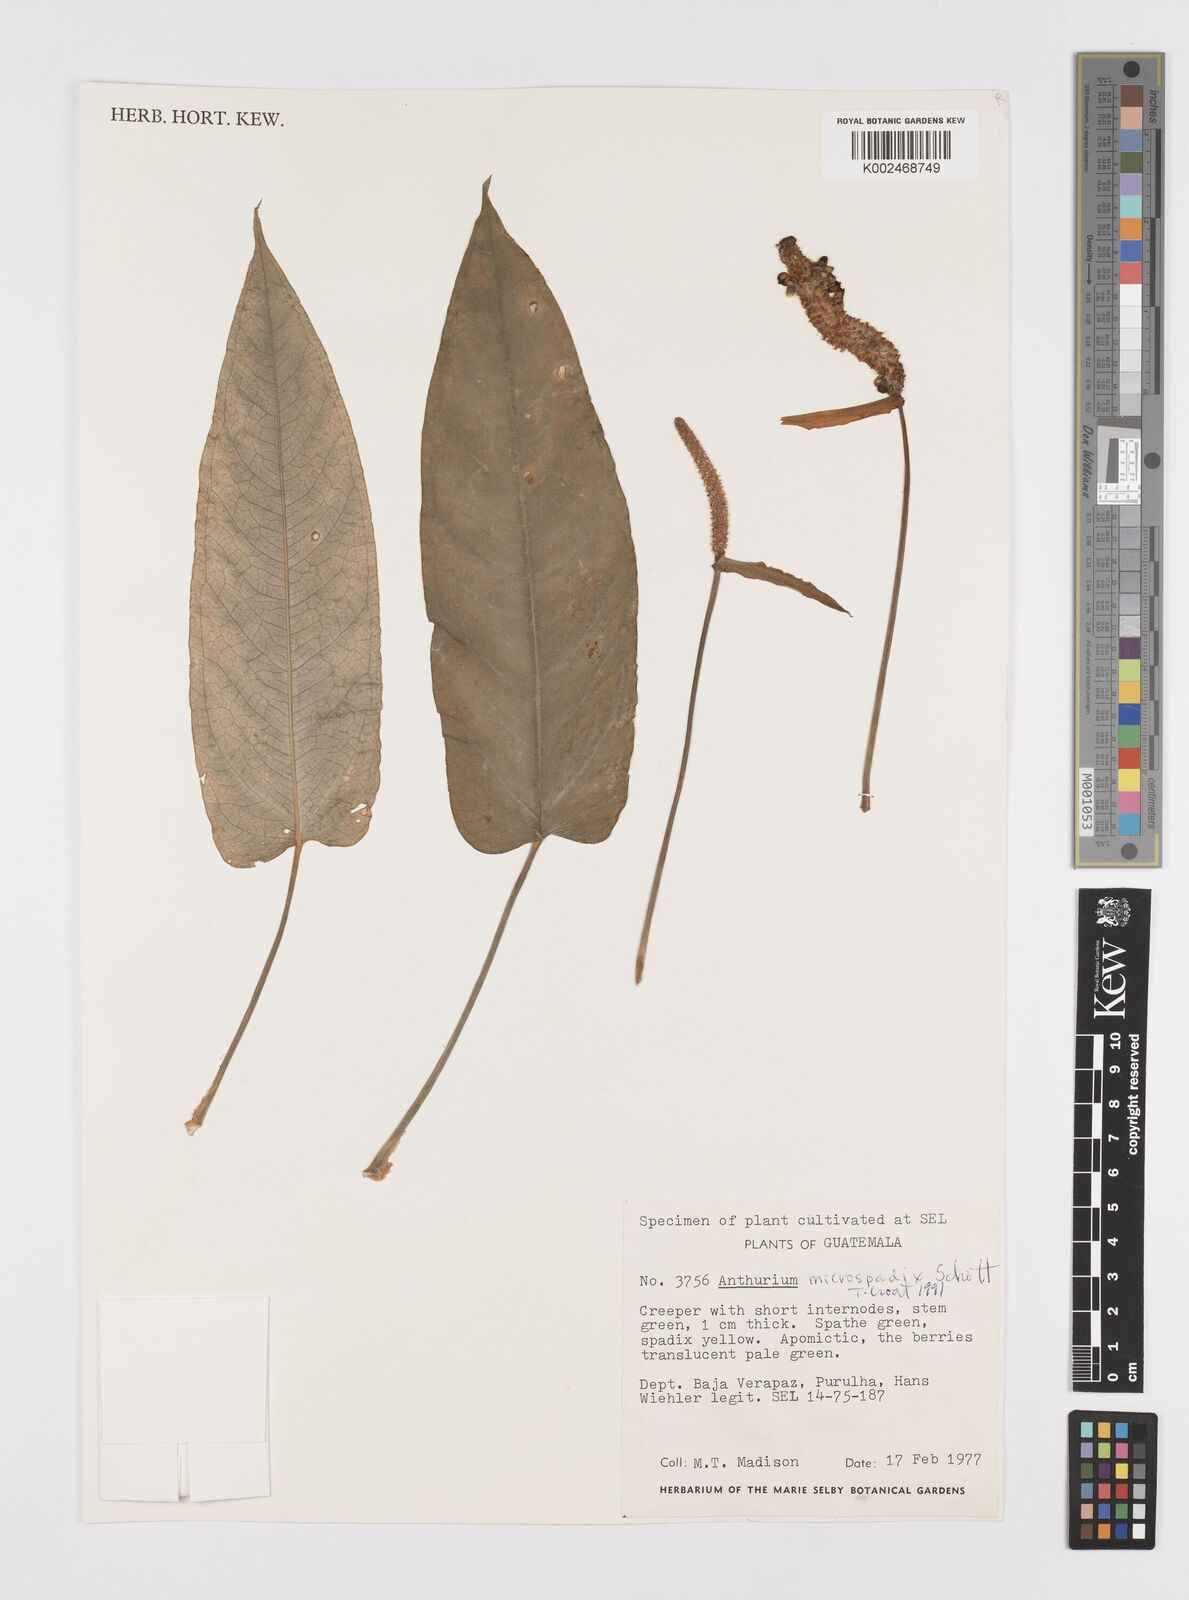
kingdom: Plantae
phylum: Tracheophyta
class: Liliopsida
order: Alismatales
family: Araceae
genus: Anthurium
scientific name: Anthurium microspadix
